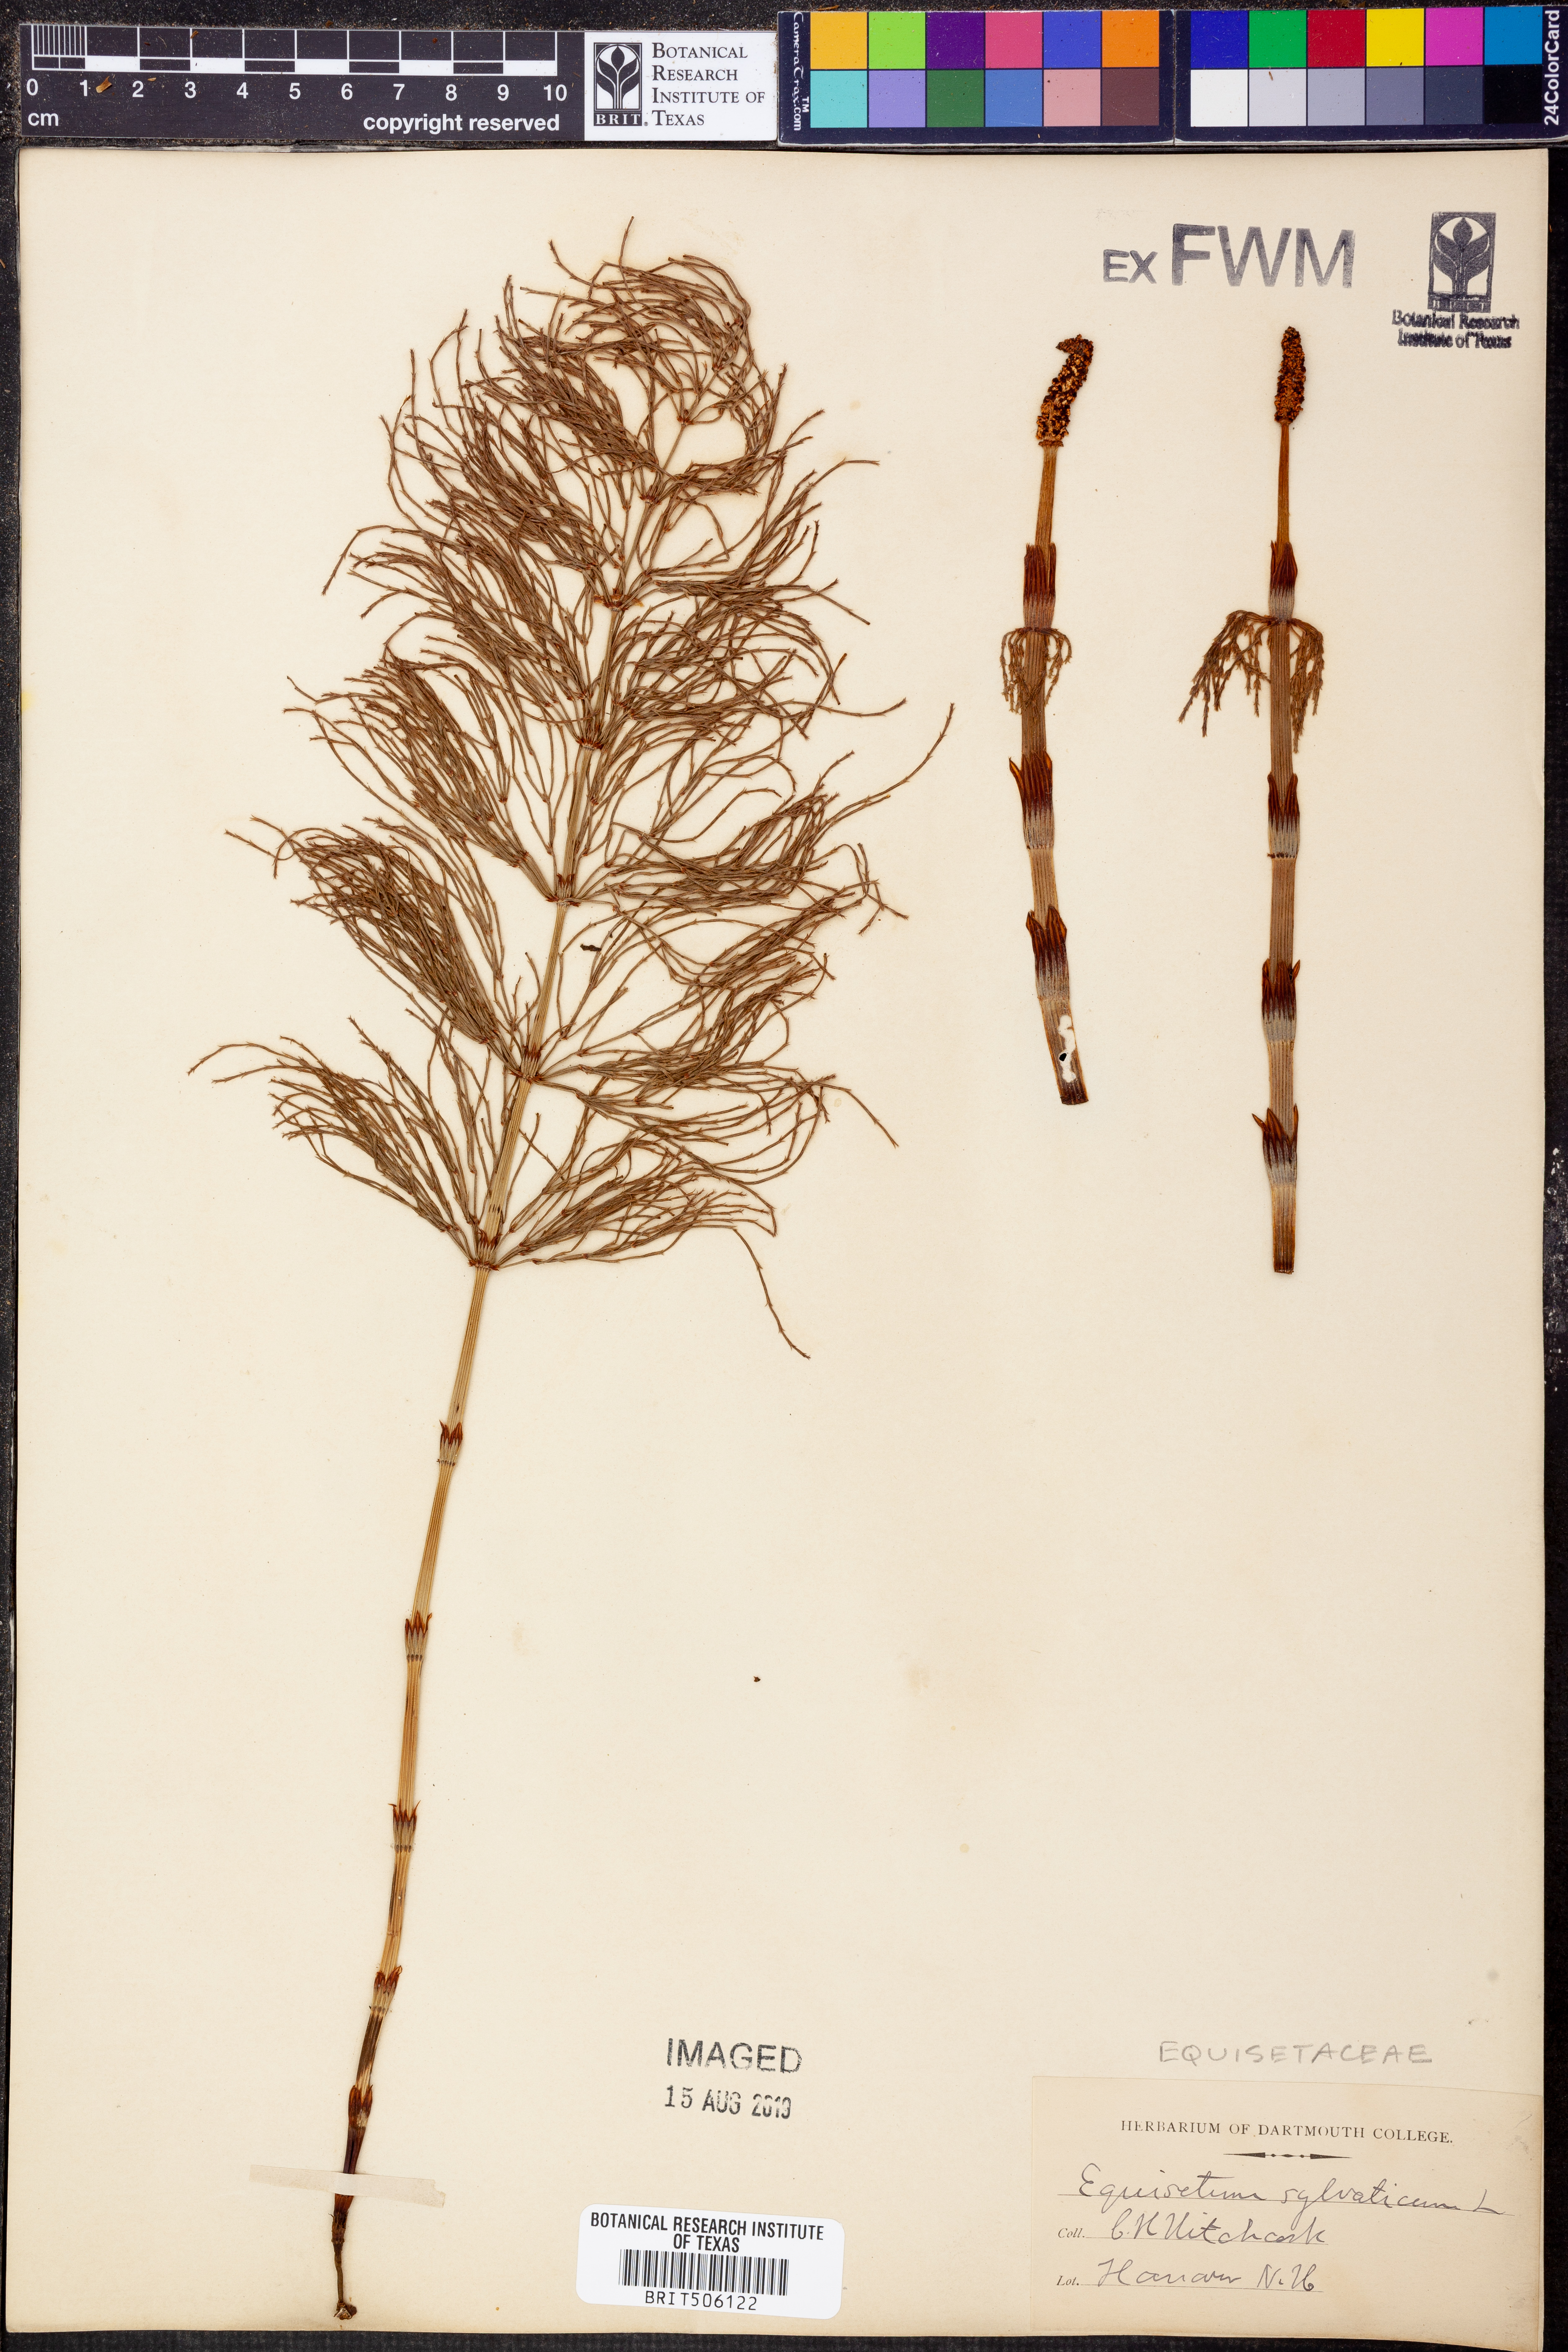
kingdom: Plantae
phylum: Tracheophyta
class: Polypodiopsida
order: Equisetales
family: Equisetaceae
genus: Equisetum
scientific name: Equisetum sylvaticum
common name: Wood horsetail
